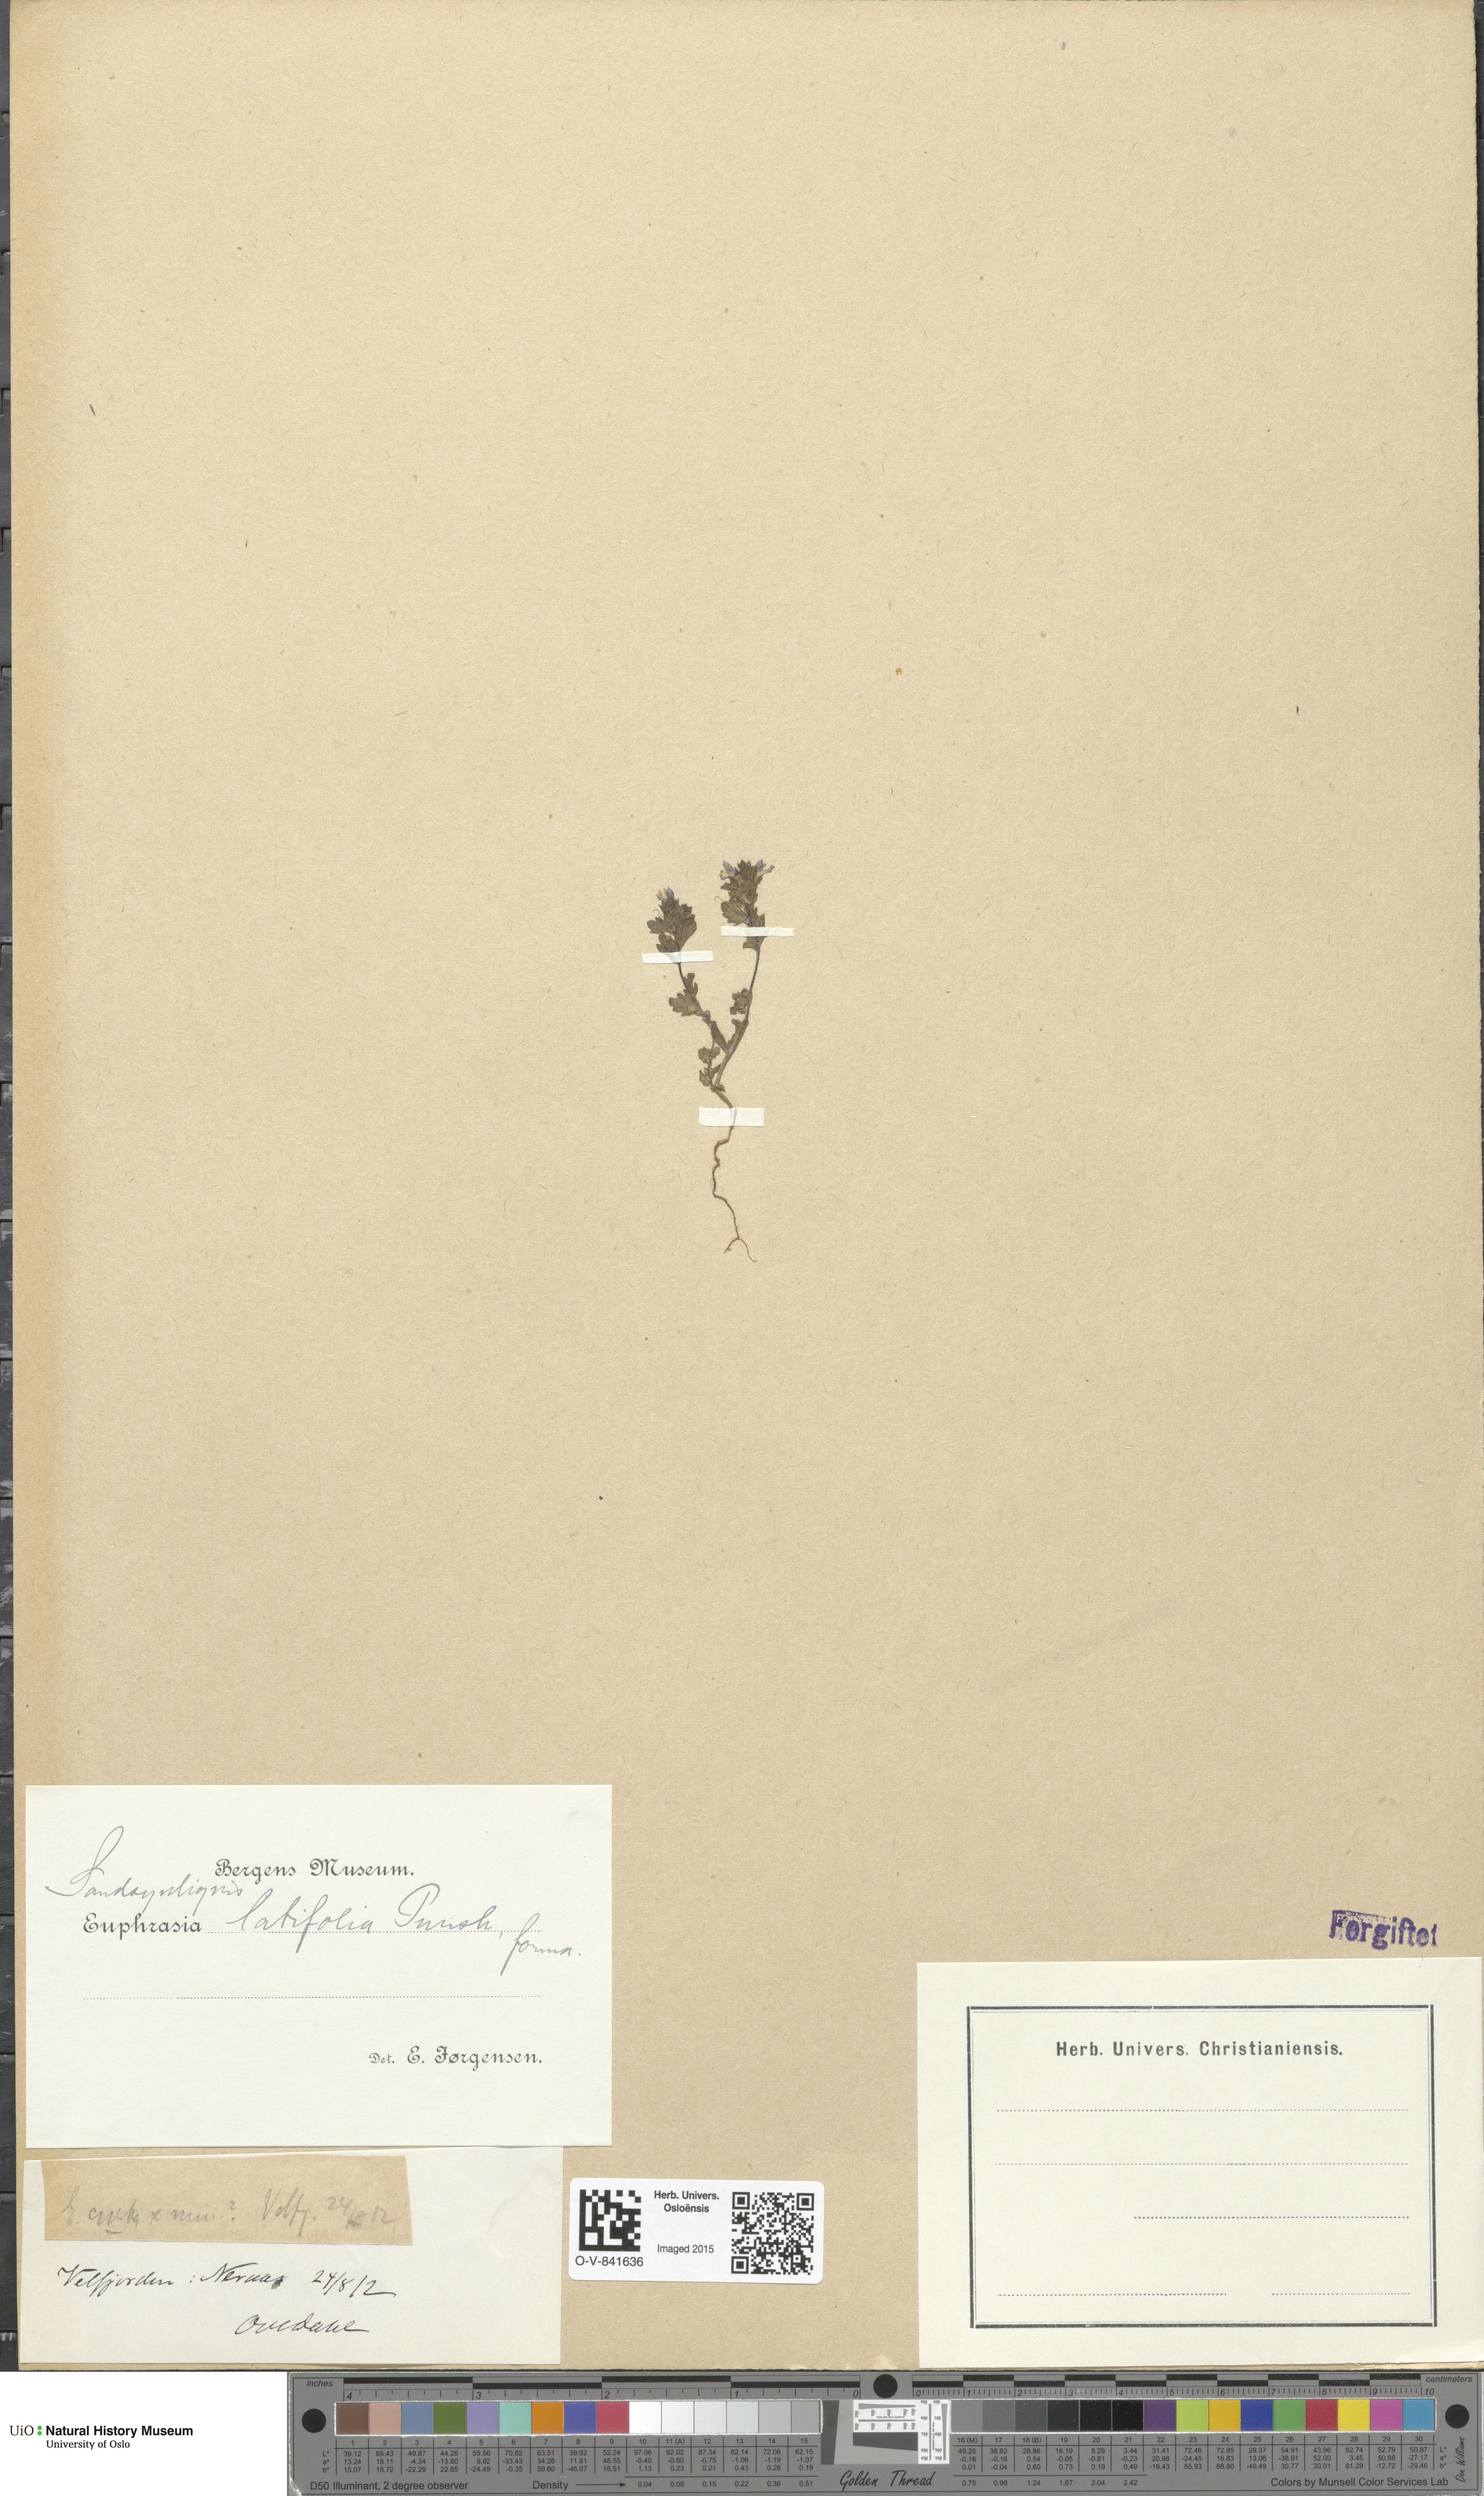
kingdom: Plantae
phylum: Tracheophyta
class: Magnoliopsida
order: Lamiales
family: Orobanchaceae
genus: Euphrasia
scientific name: Euphrasia wettsteinii
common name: Wettstein's eyebright
